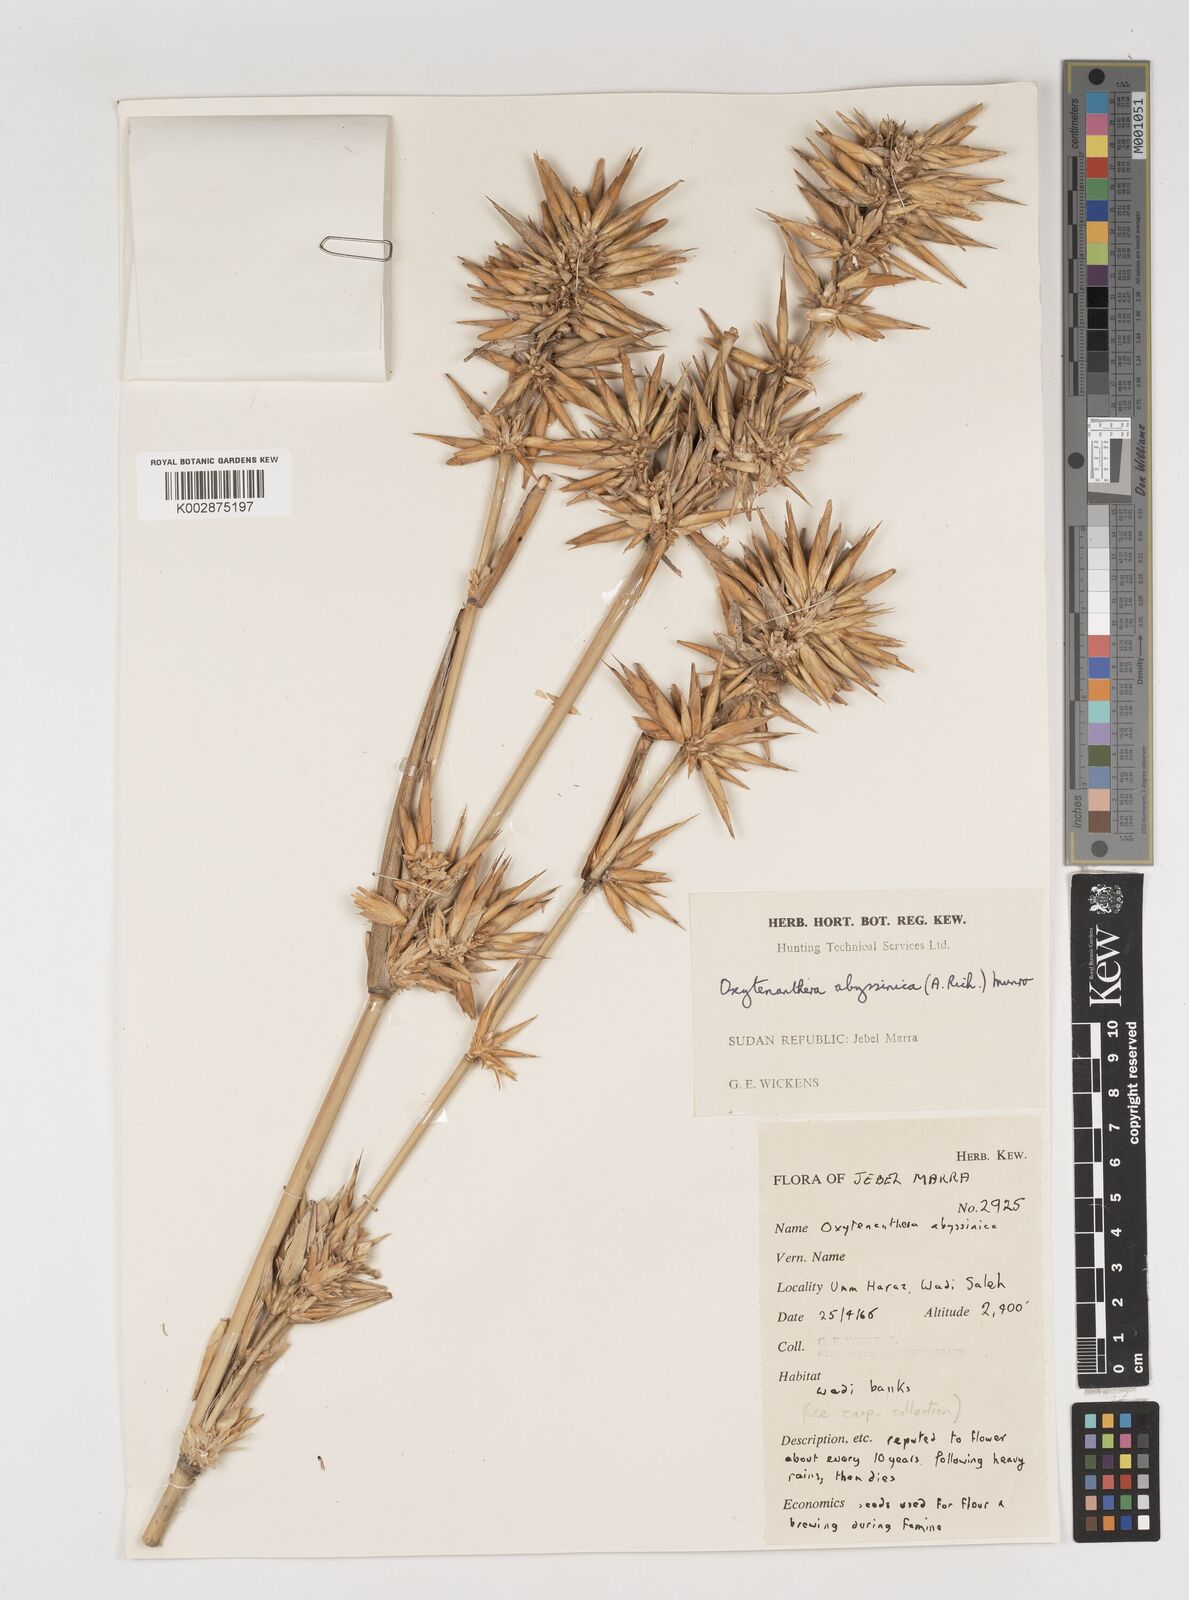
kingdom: Plantae
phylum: Tracheophyta
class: Liliopsida
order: Poales
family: Poaceae
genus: Oxytenanthera
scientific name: Oxytenanthera abyssinica
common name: Wine bamboo
